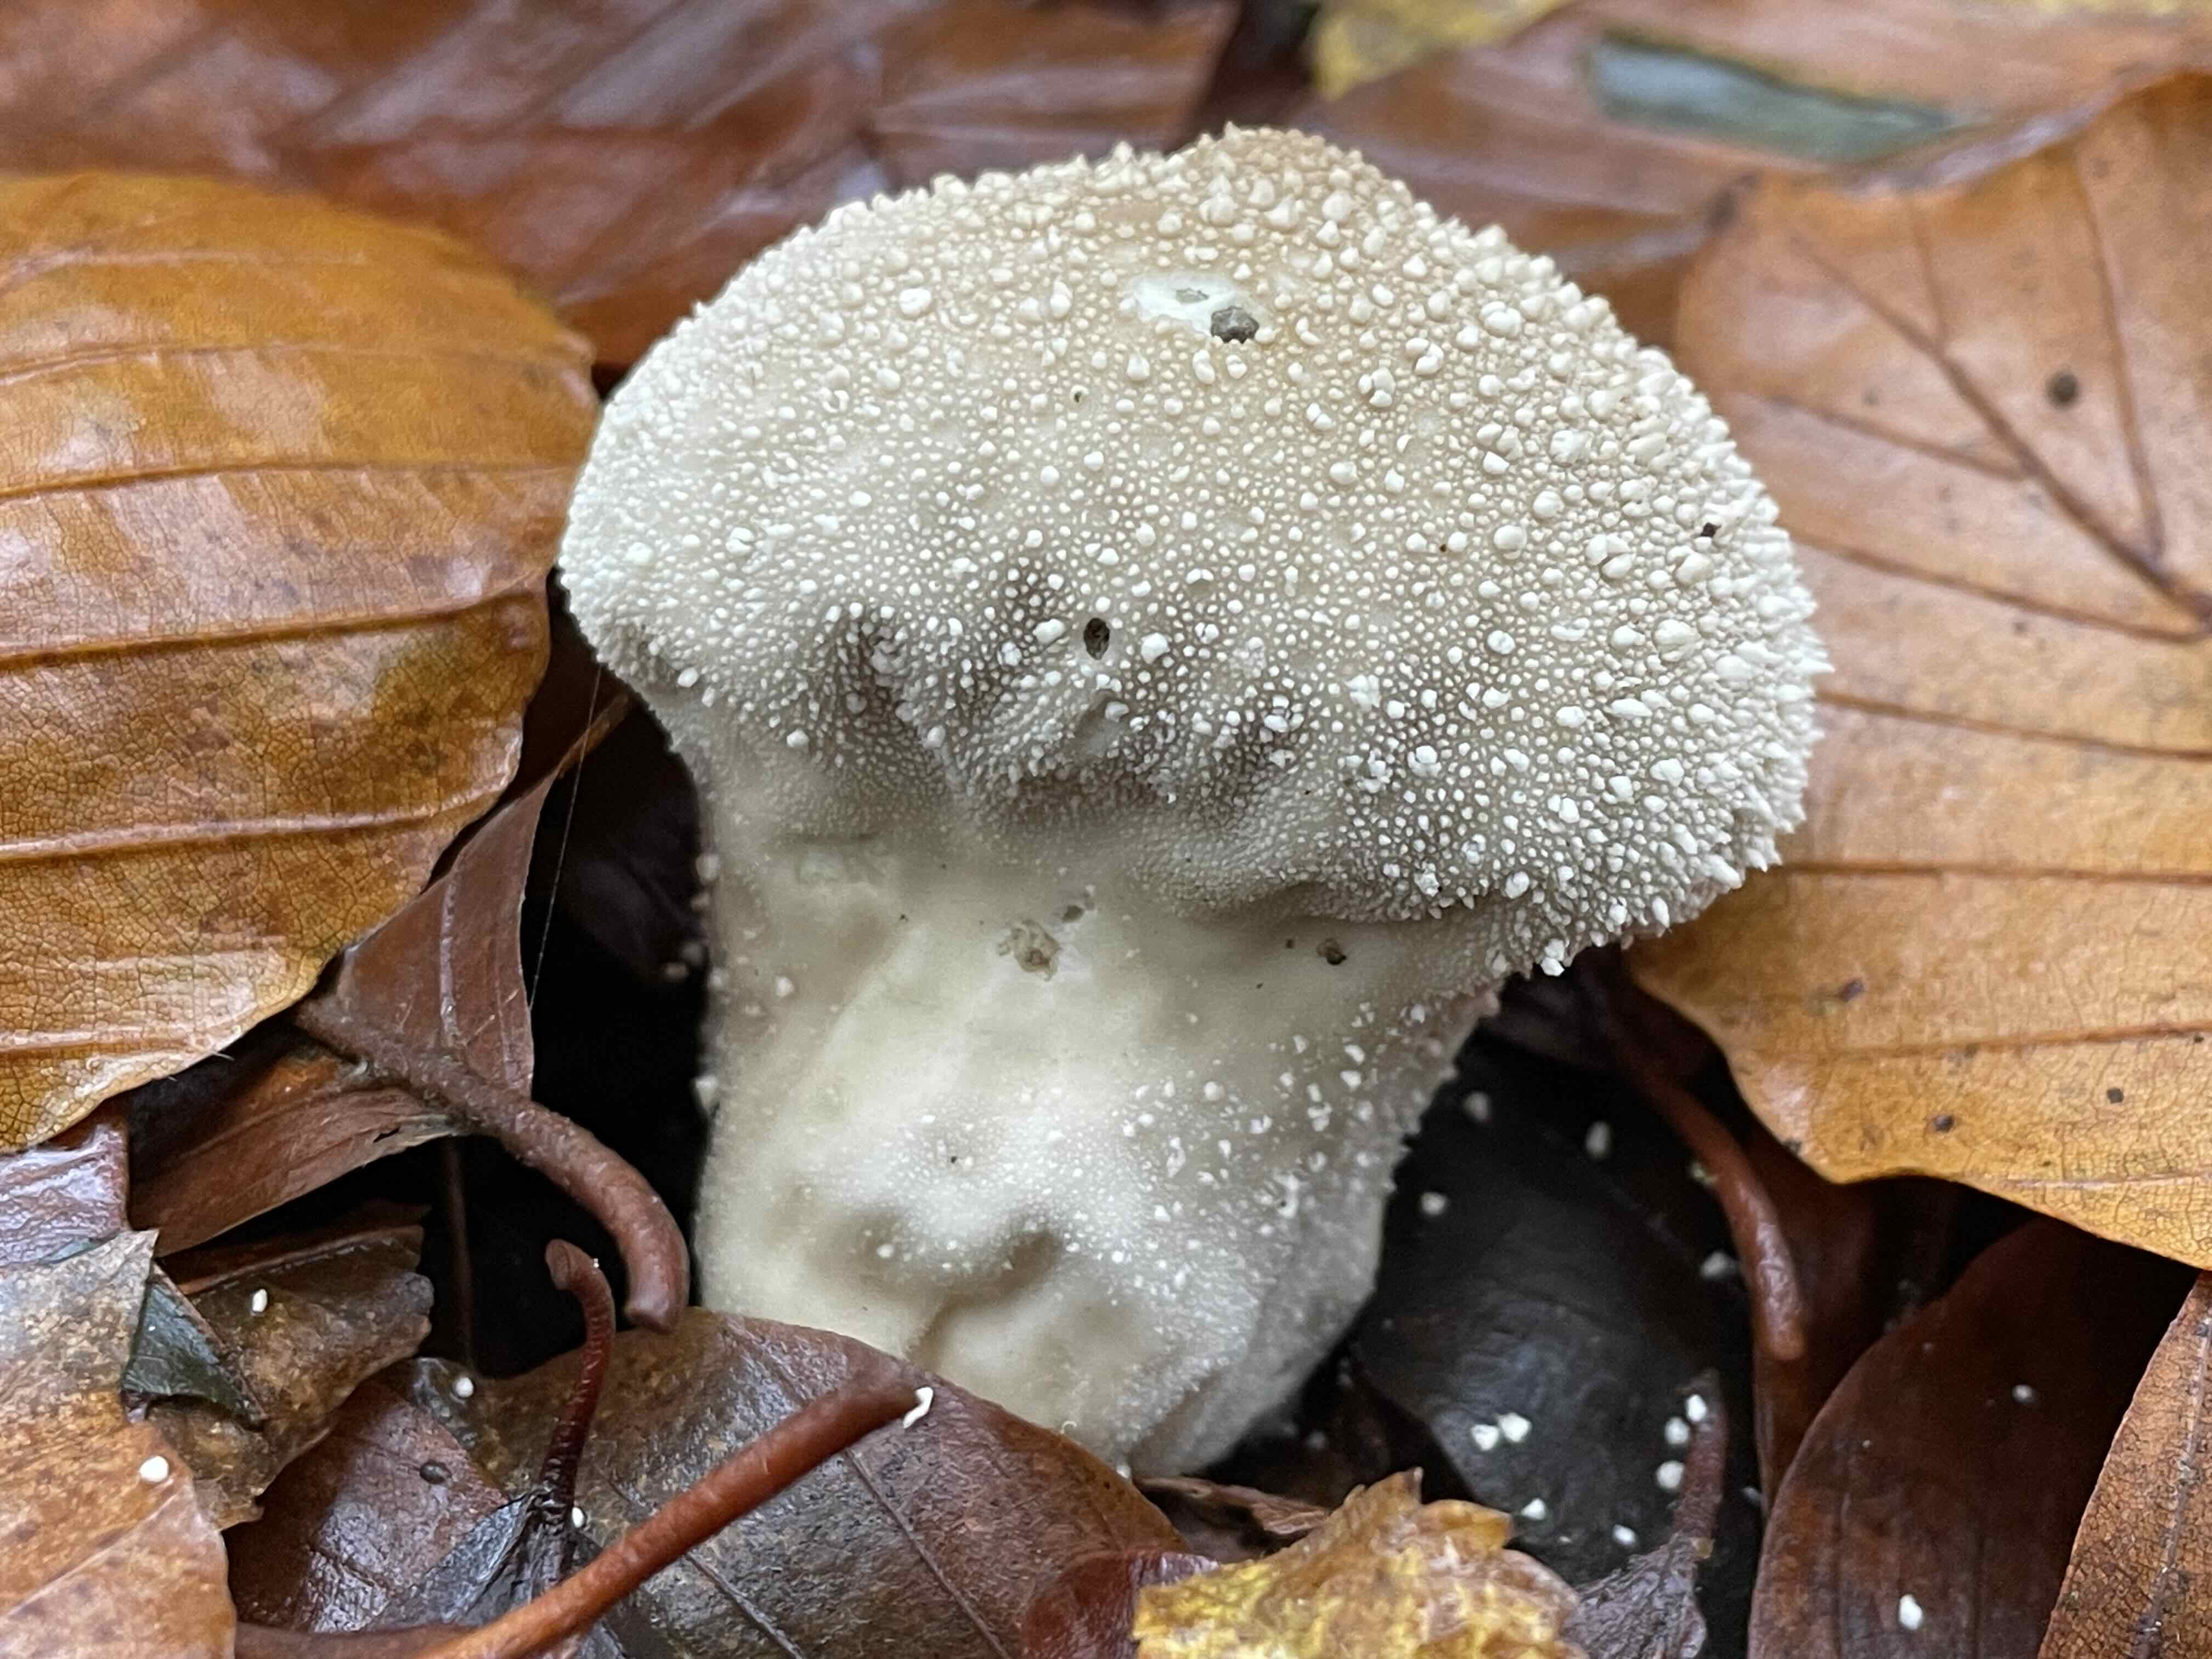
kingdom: Fungi
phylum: Basidiomycota
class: Agaricomycetes
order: Agaricales
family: Lycoperdaceae
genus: Lycoperdon
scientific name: Lycoperdon perlatum
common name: krystal-støvbold
